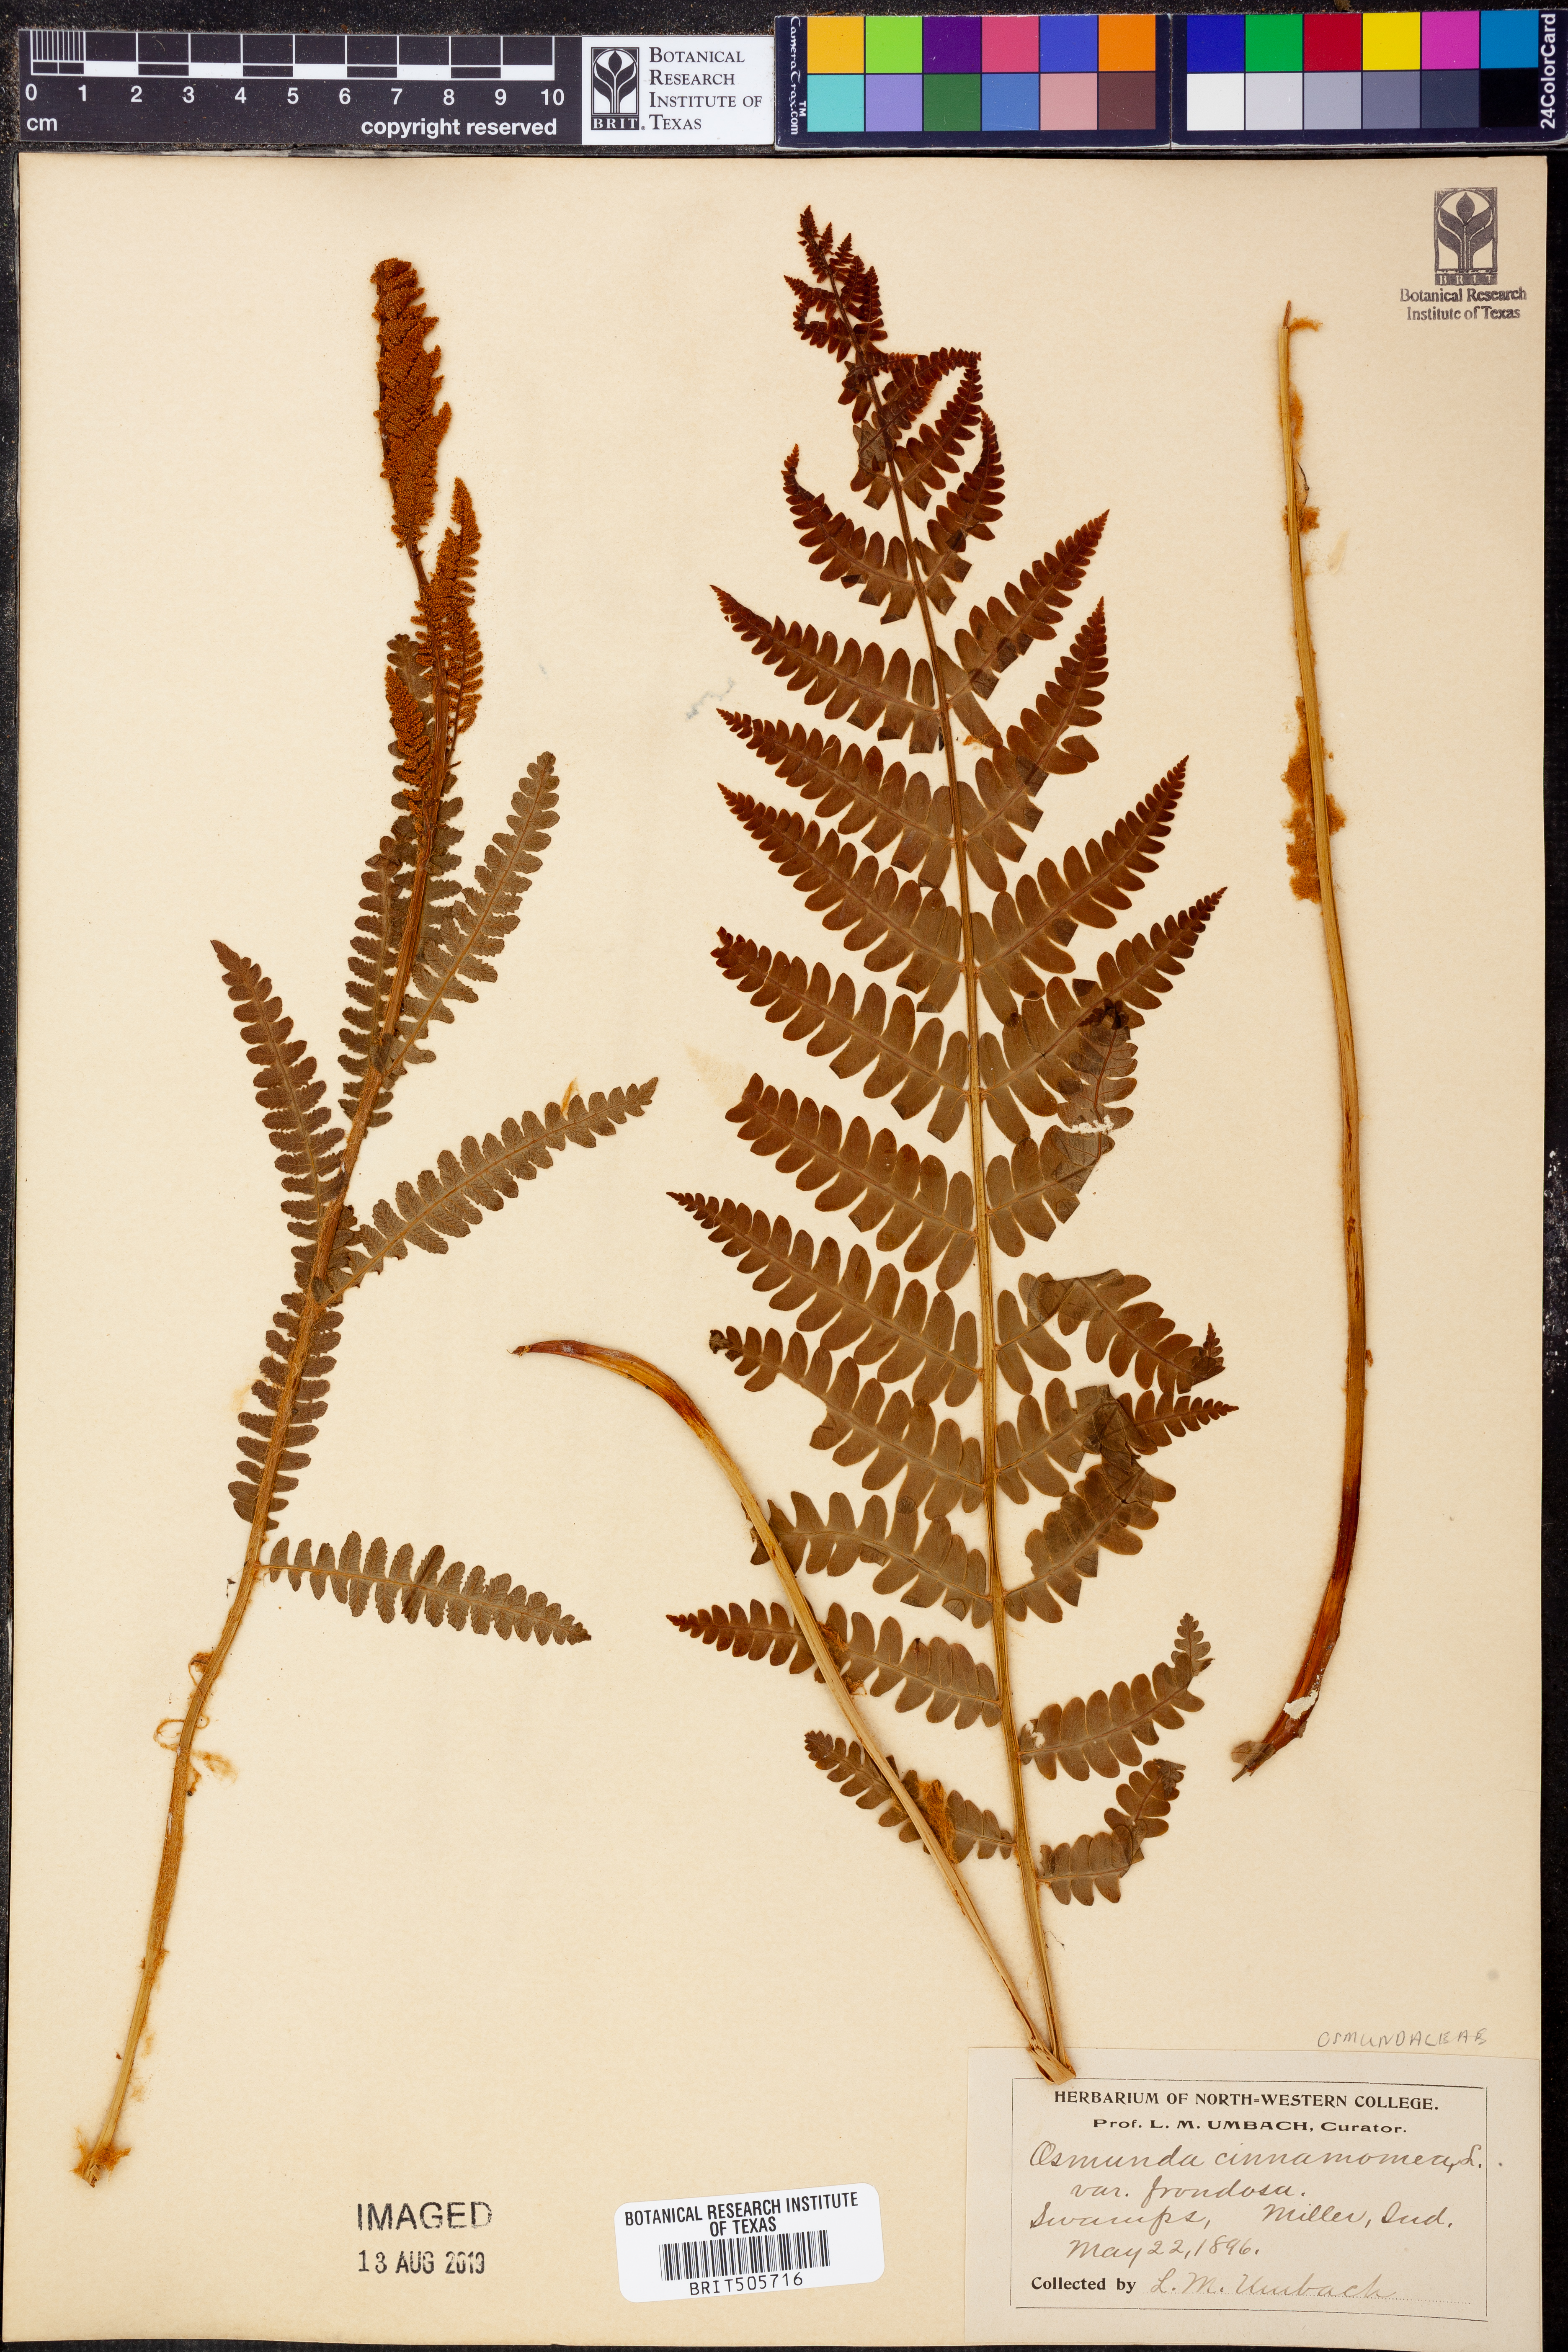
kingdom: Plantae
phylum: Tracheophyta
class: Polypodiopsida
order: Osmundales
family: Osmundaceae
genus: Osmundastrum
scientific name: Osmundastrum cinnamomeum
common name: Cinnamon fern
